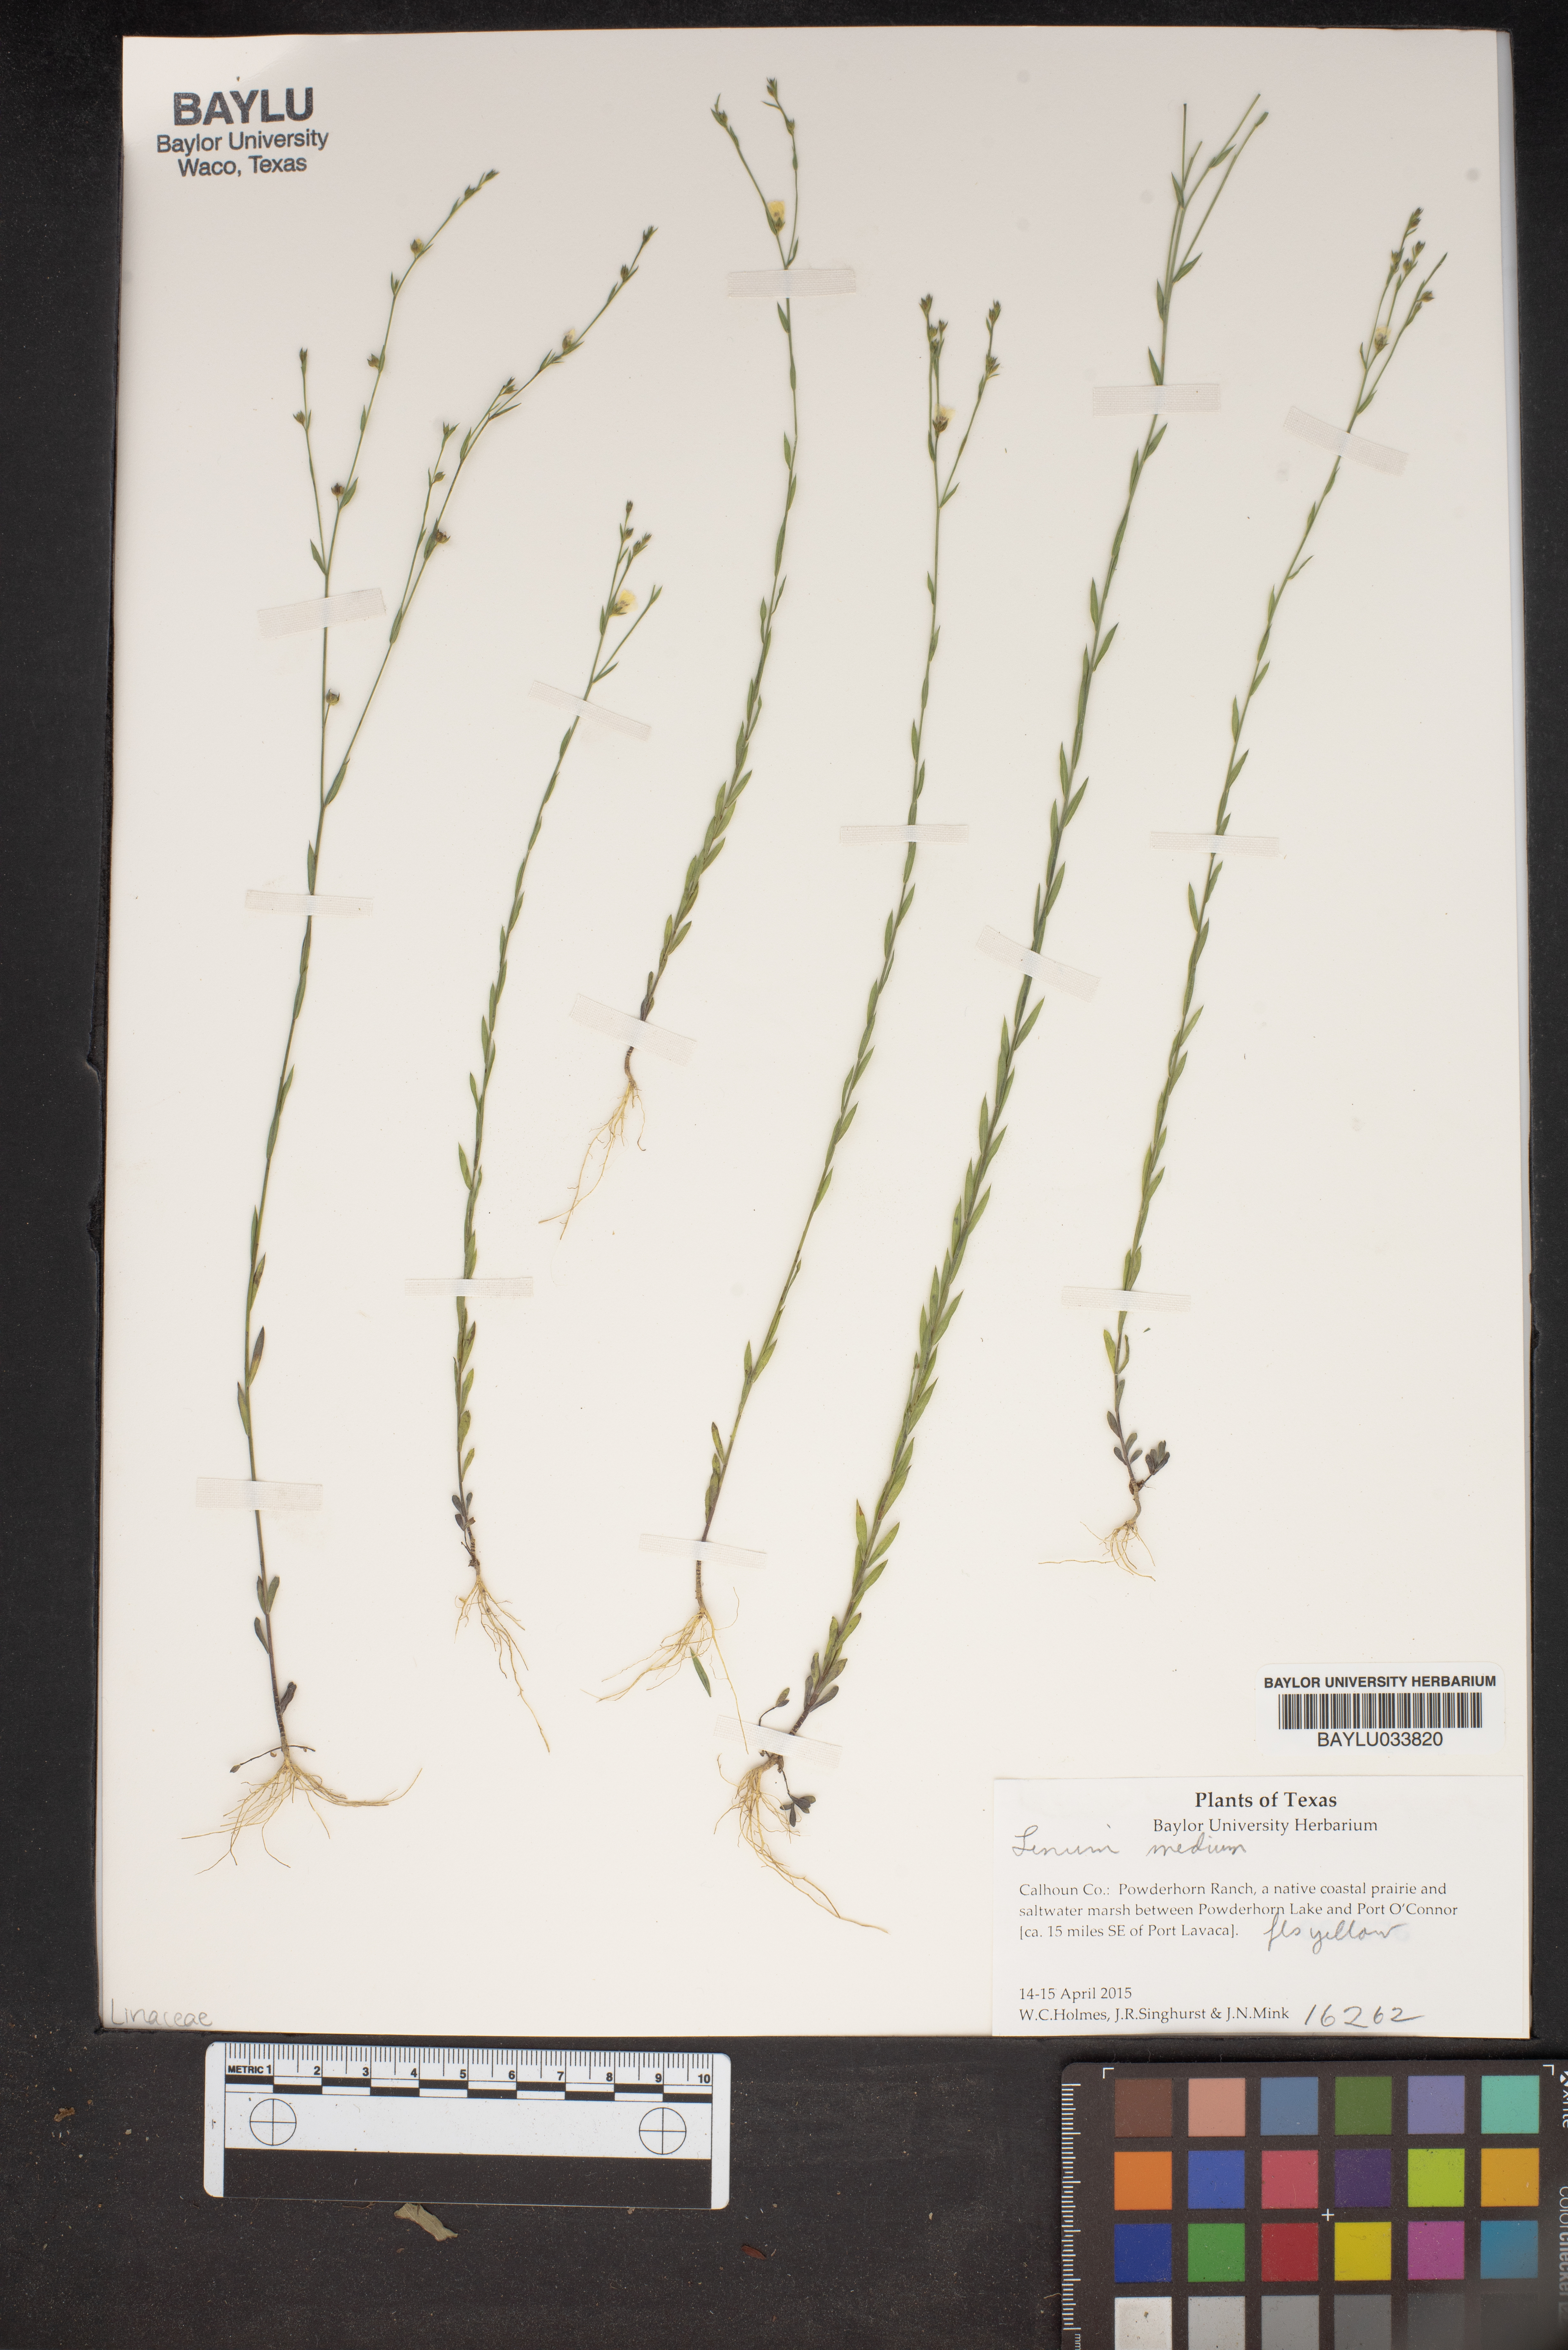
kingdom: Plantae
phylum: Tracheophyta
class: Magnoliopsida
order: Malpighiales
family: Linaceae
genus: Linum
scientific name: Linum medium
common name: Stiff yellow flax
